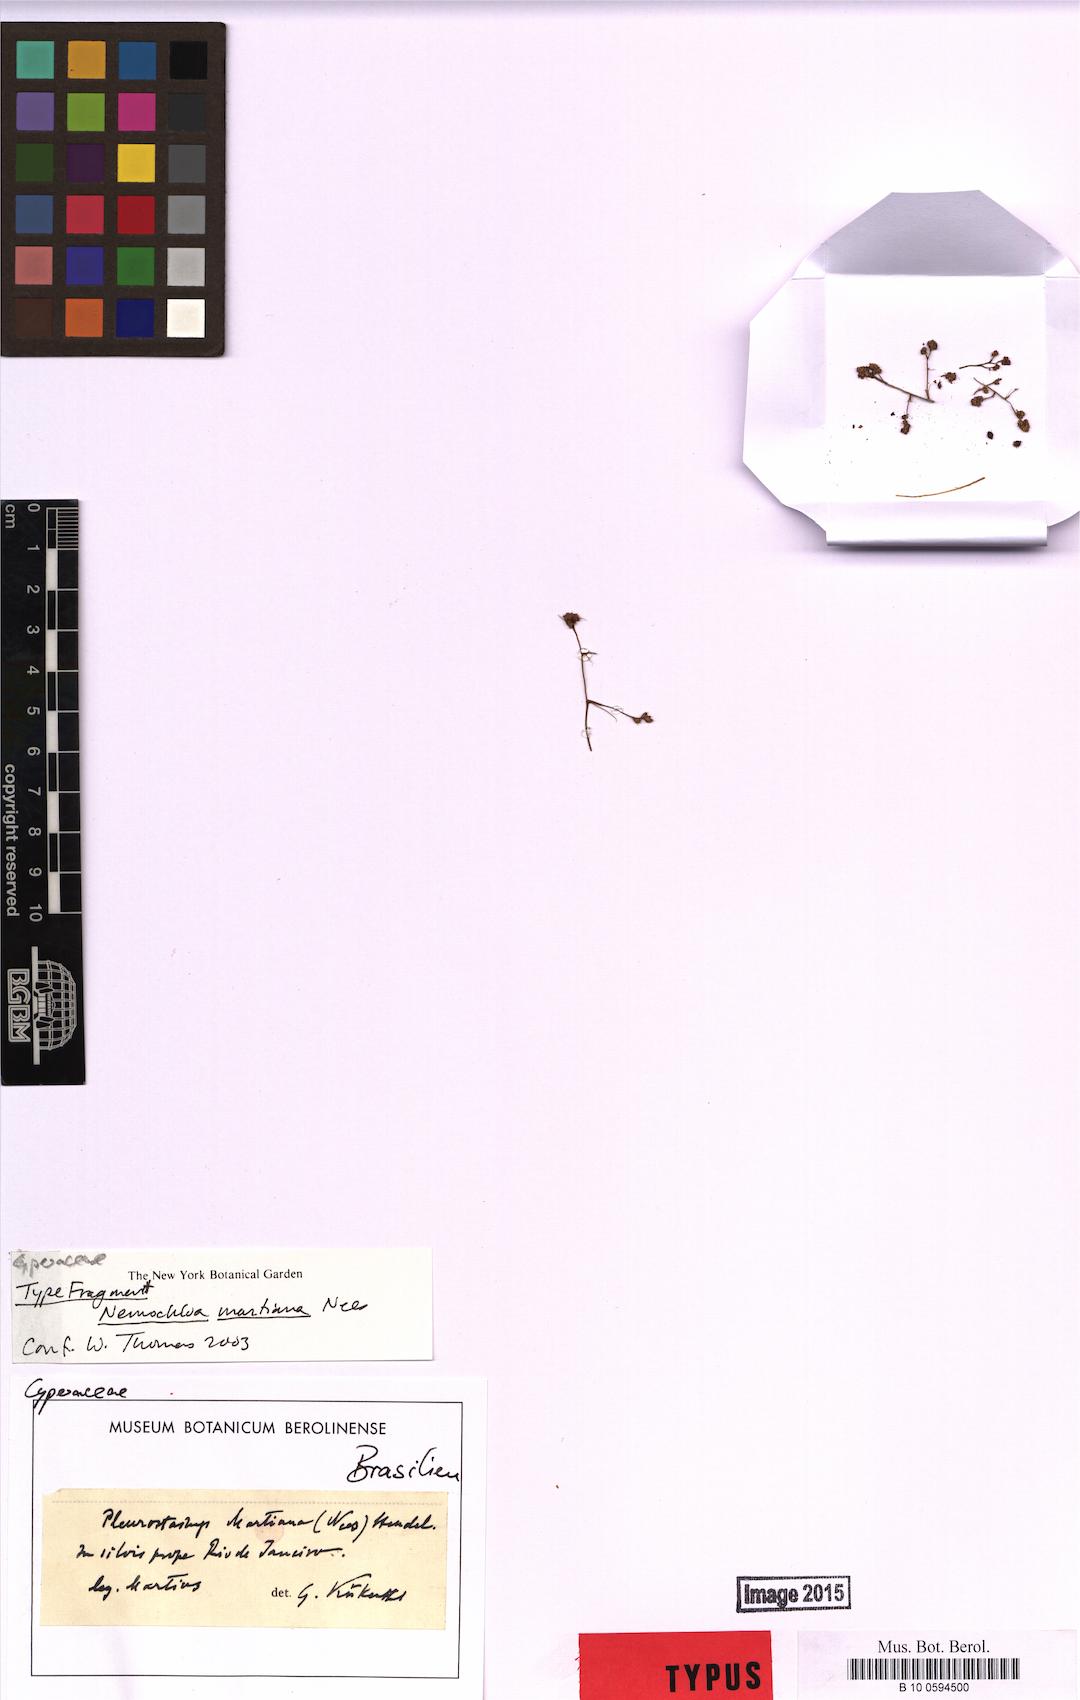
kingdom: Plantae
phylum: Tracheophyta
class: Liliopsida
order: Poales
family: Cyperaceae
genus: Rhynchospora
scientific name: Rhynchospora tenuiflora
